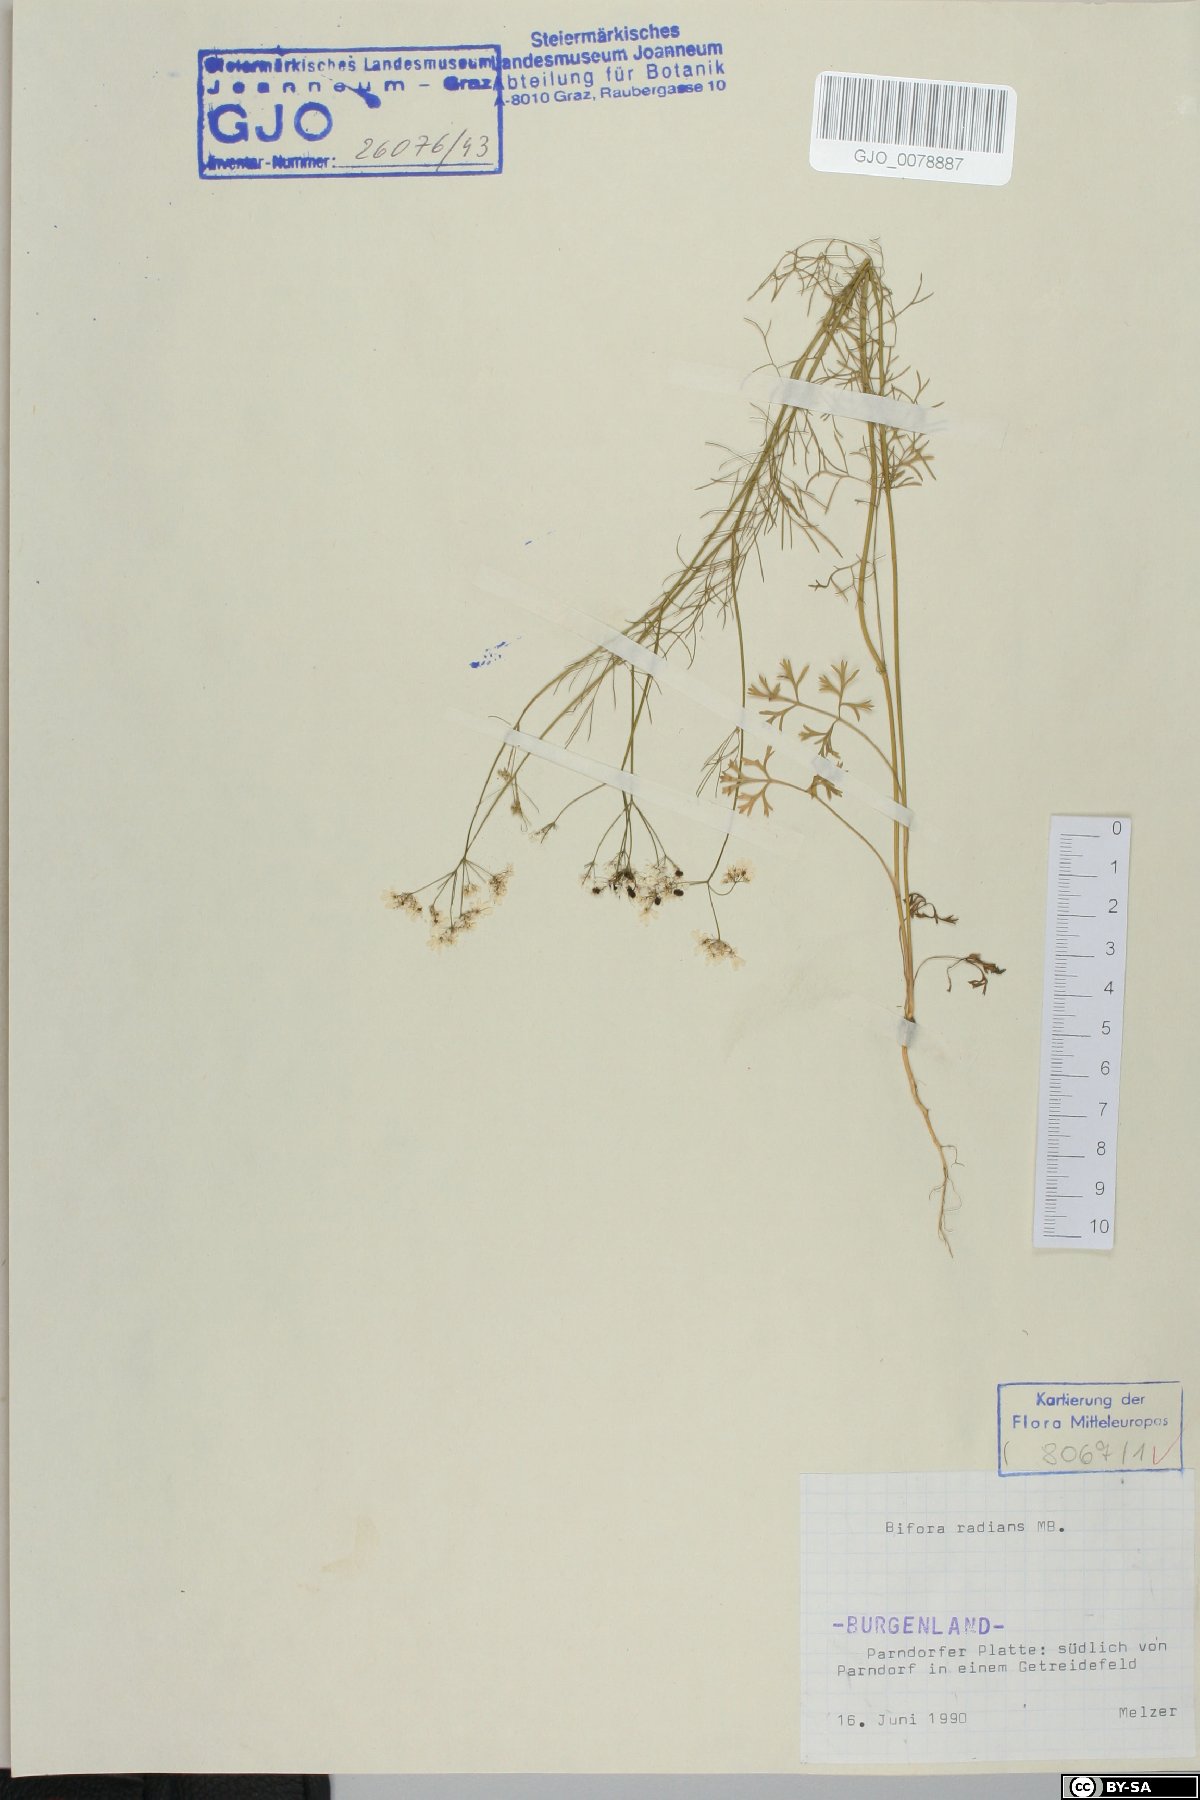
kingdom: Plantae
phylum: Tracheophyta
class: Magnoliopsida
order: Apiales
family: Apiaceae
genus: Bifora
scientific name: Bifora radians
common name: Wild bishop
